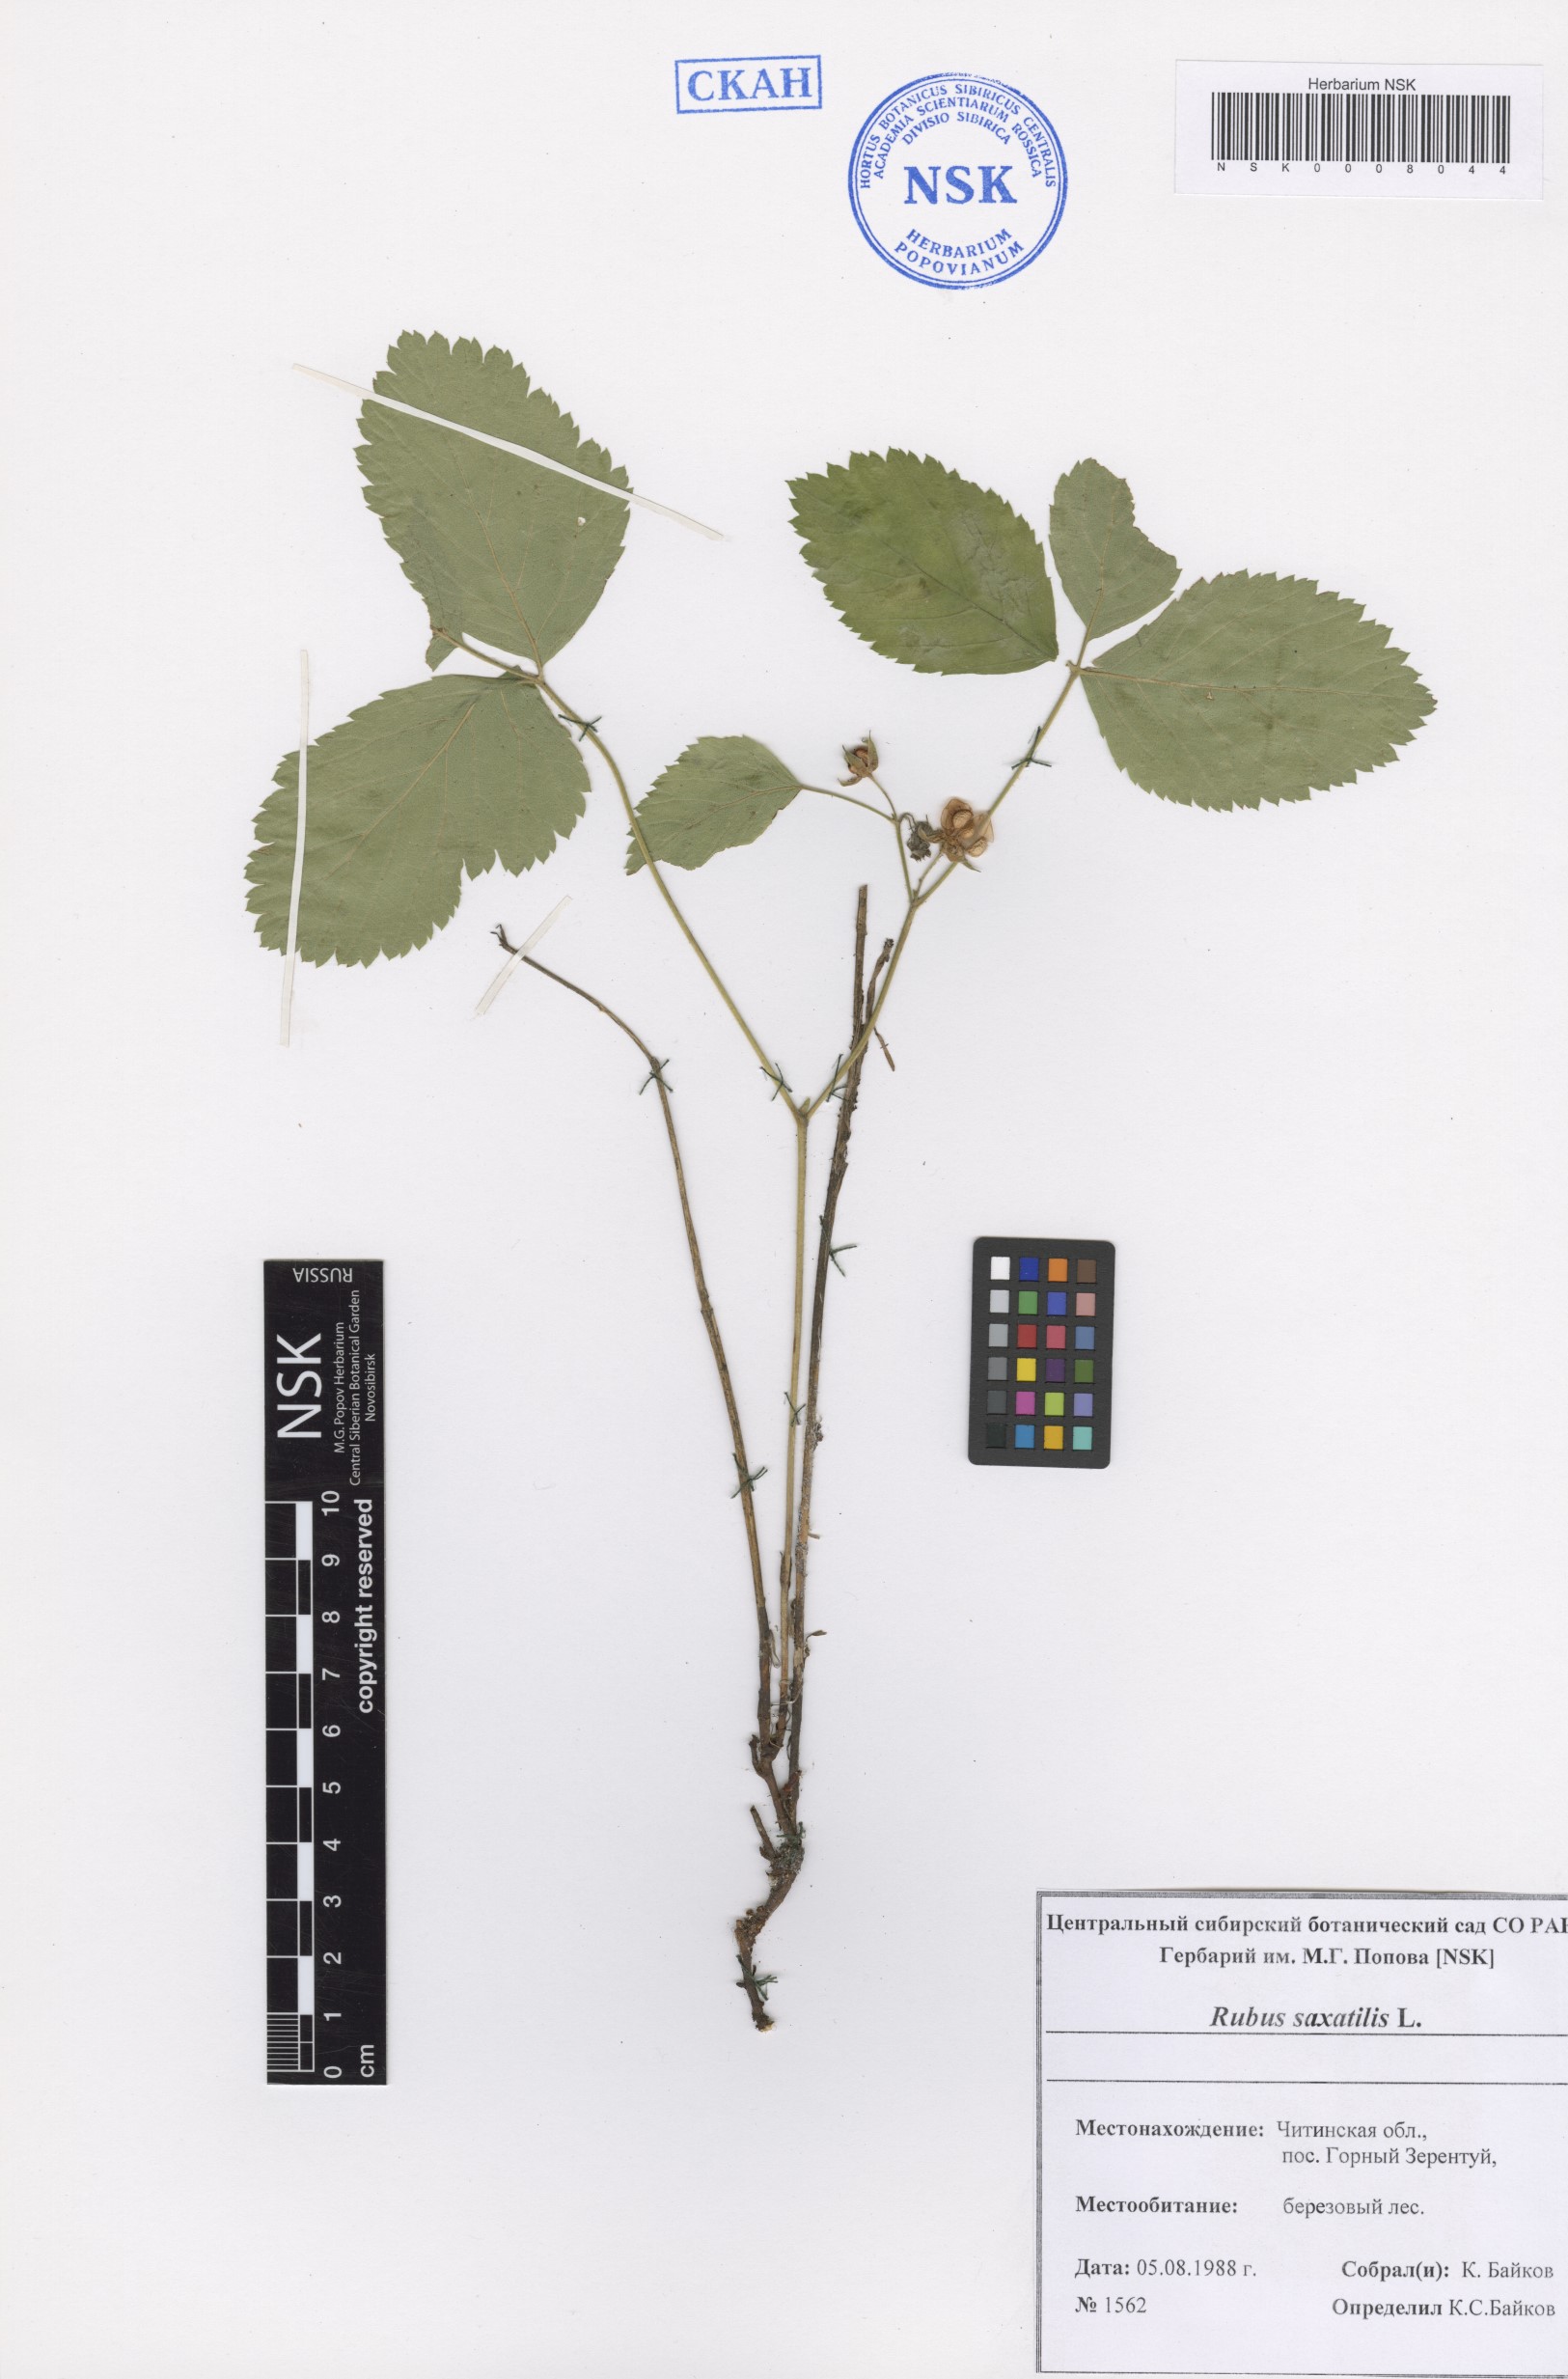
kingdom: Plantae
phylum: Tracheophyta
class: Magnoliopsida
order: Rosales
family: Rosaceae
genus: Rubus
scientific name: Rubus saxatilis
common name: Stone bramble
